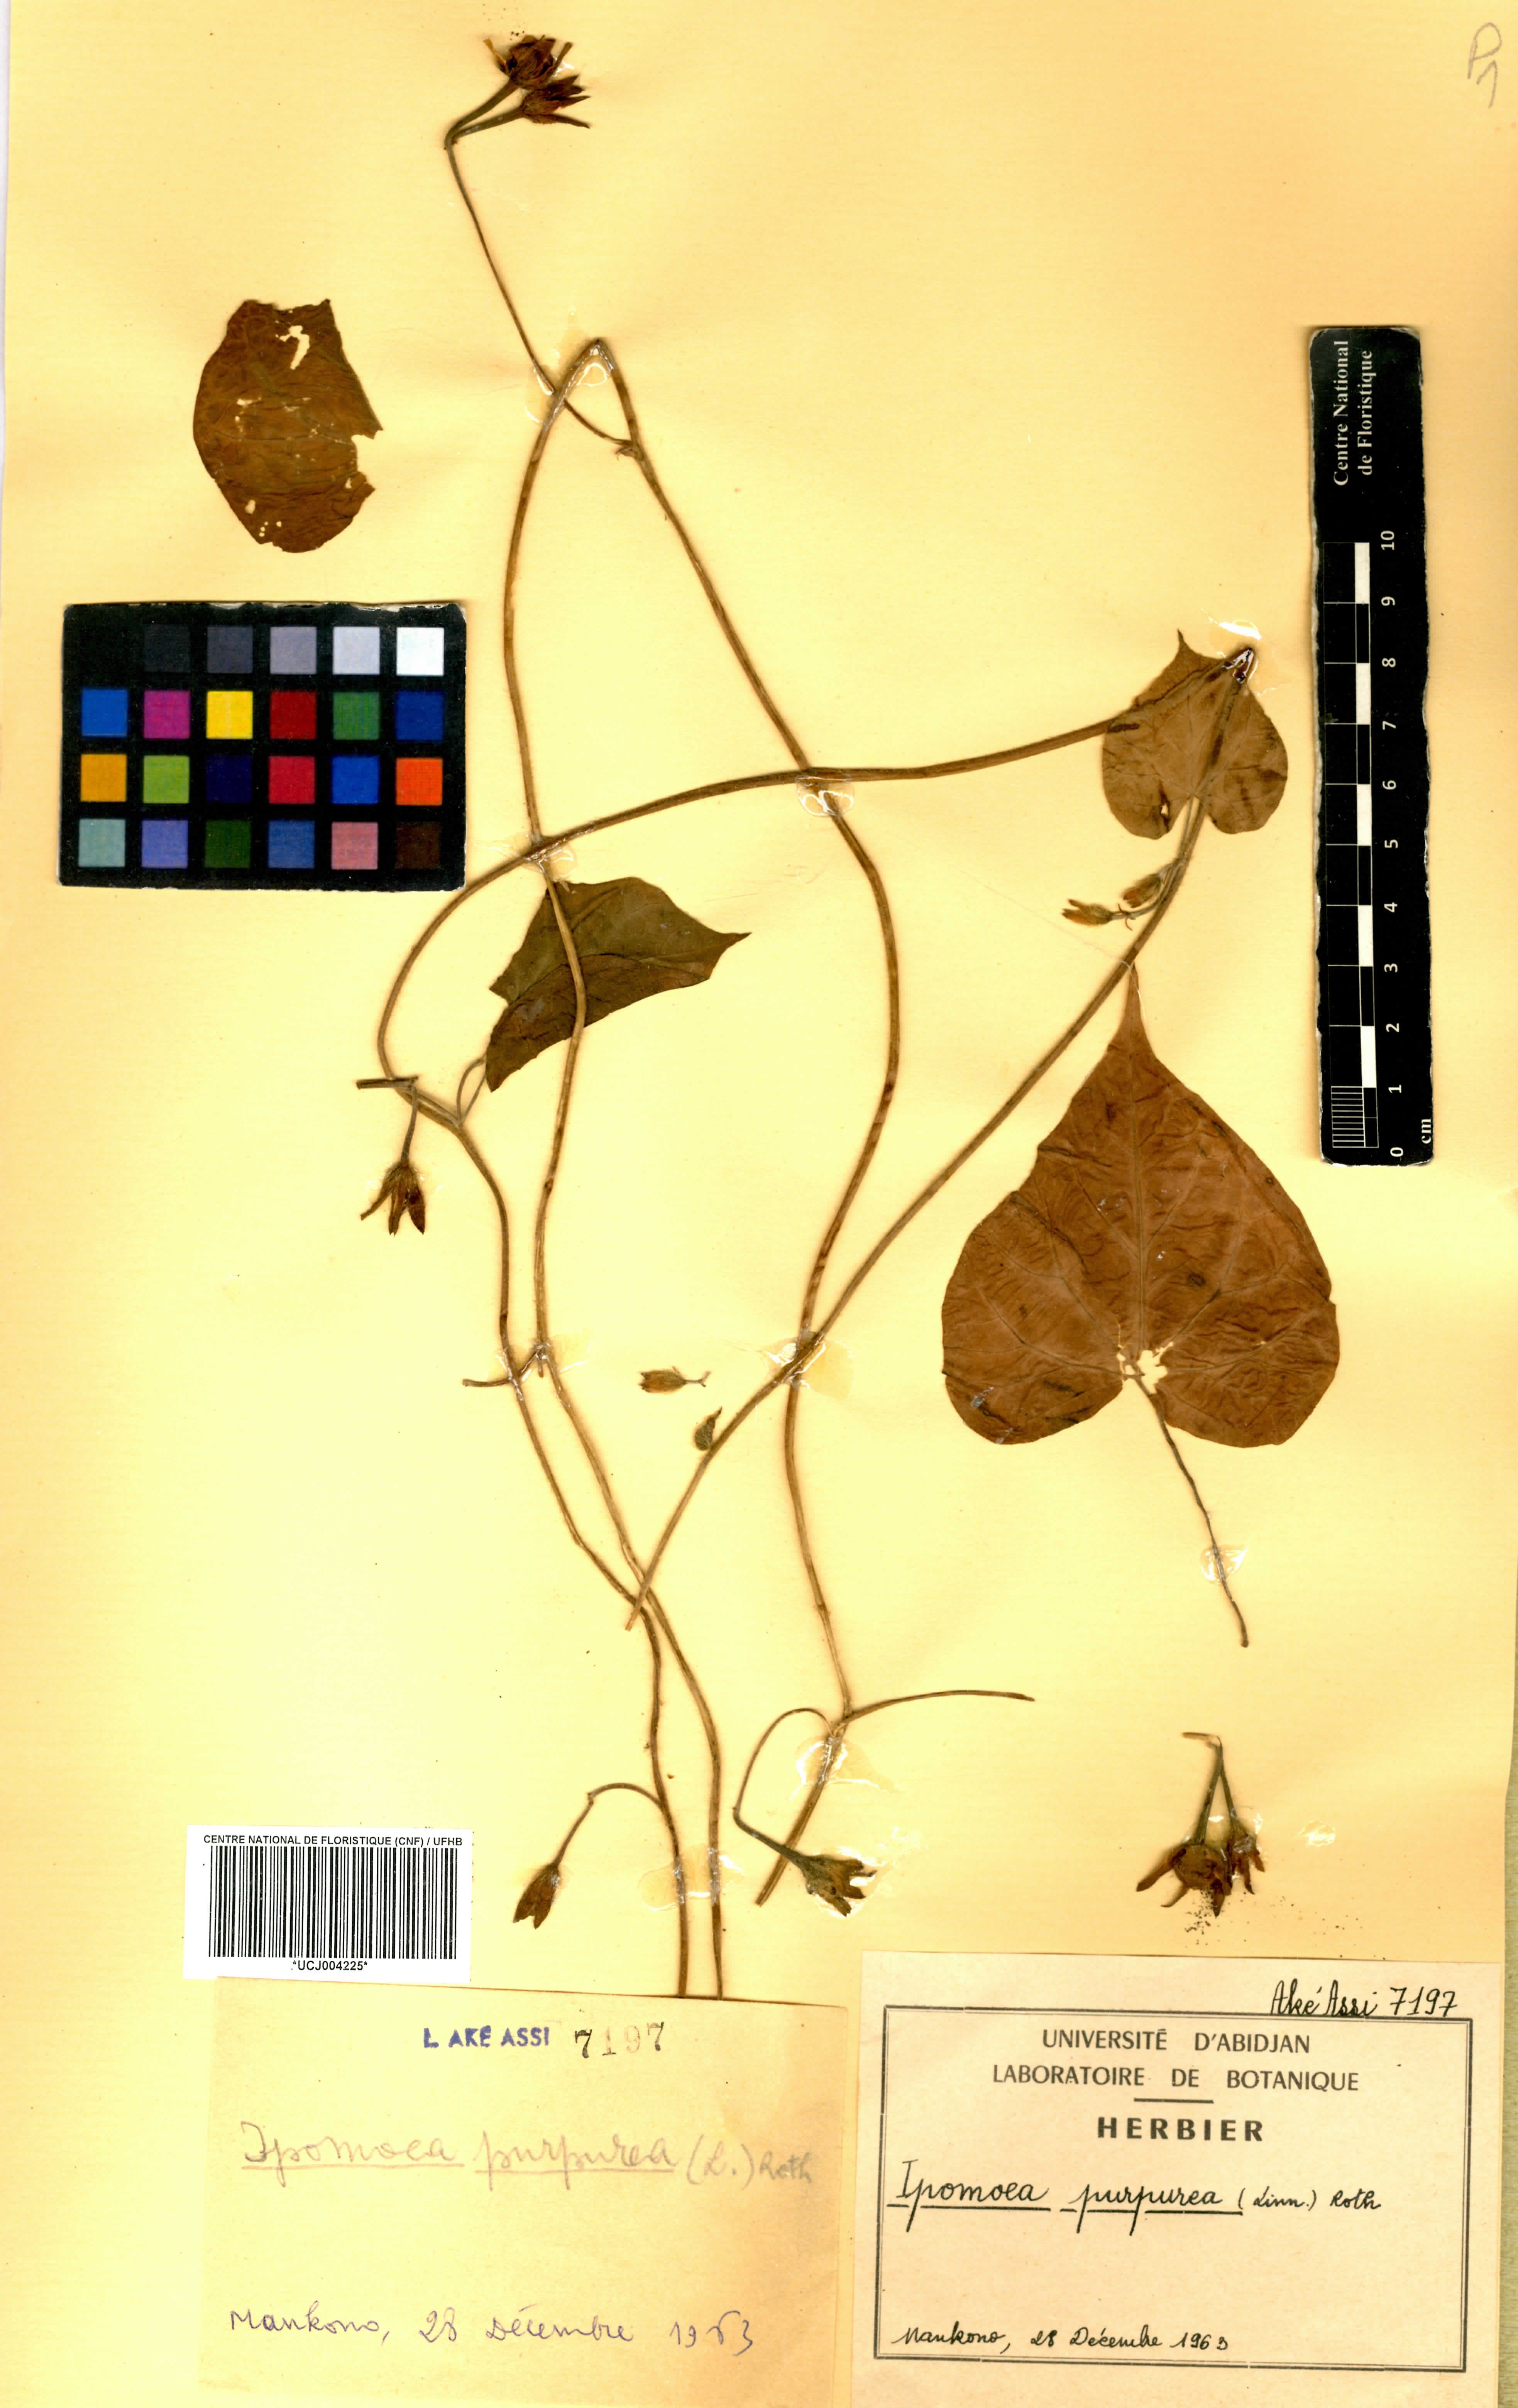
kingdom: Plantae
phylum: Tracheophyta
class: Magnoliopsida
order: Solanales
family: Convolvulaceae
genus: Ipomoea
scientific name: Ipomoea purpurea
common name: Common morning-glory
